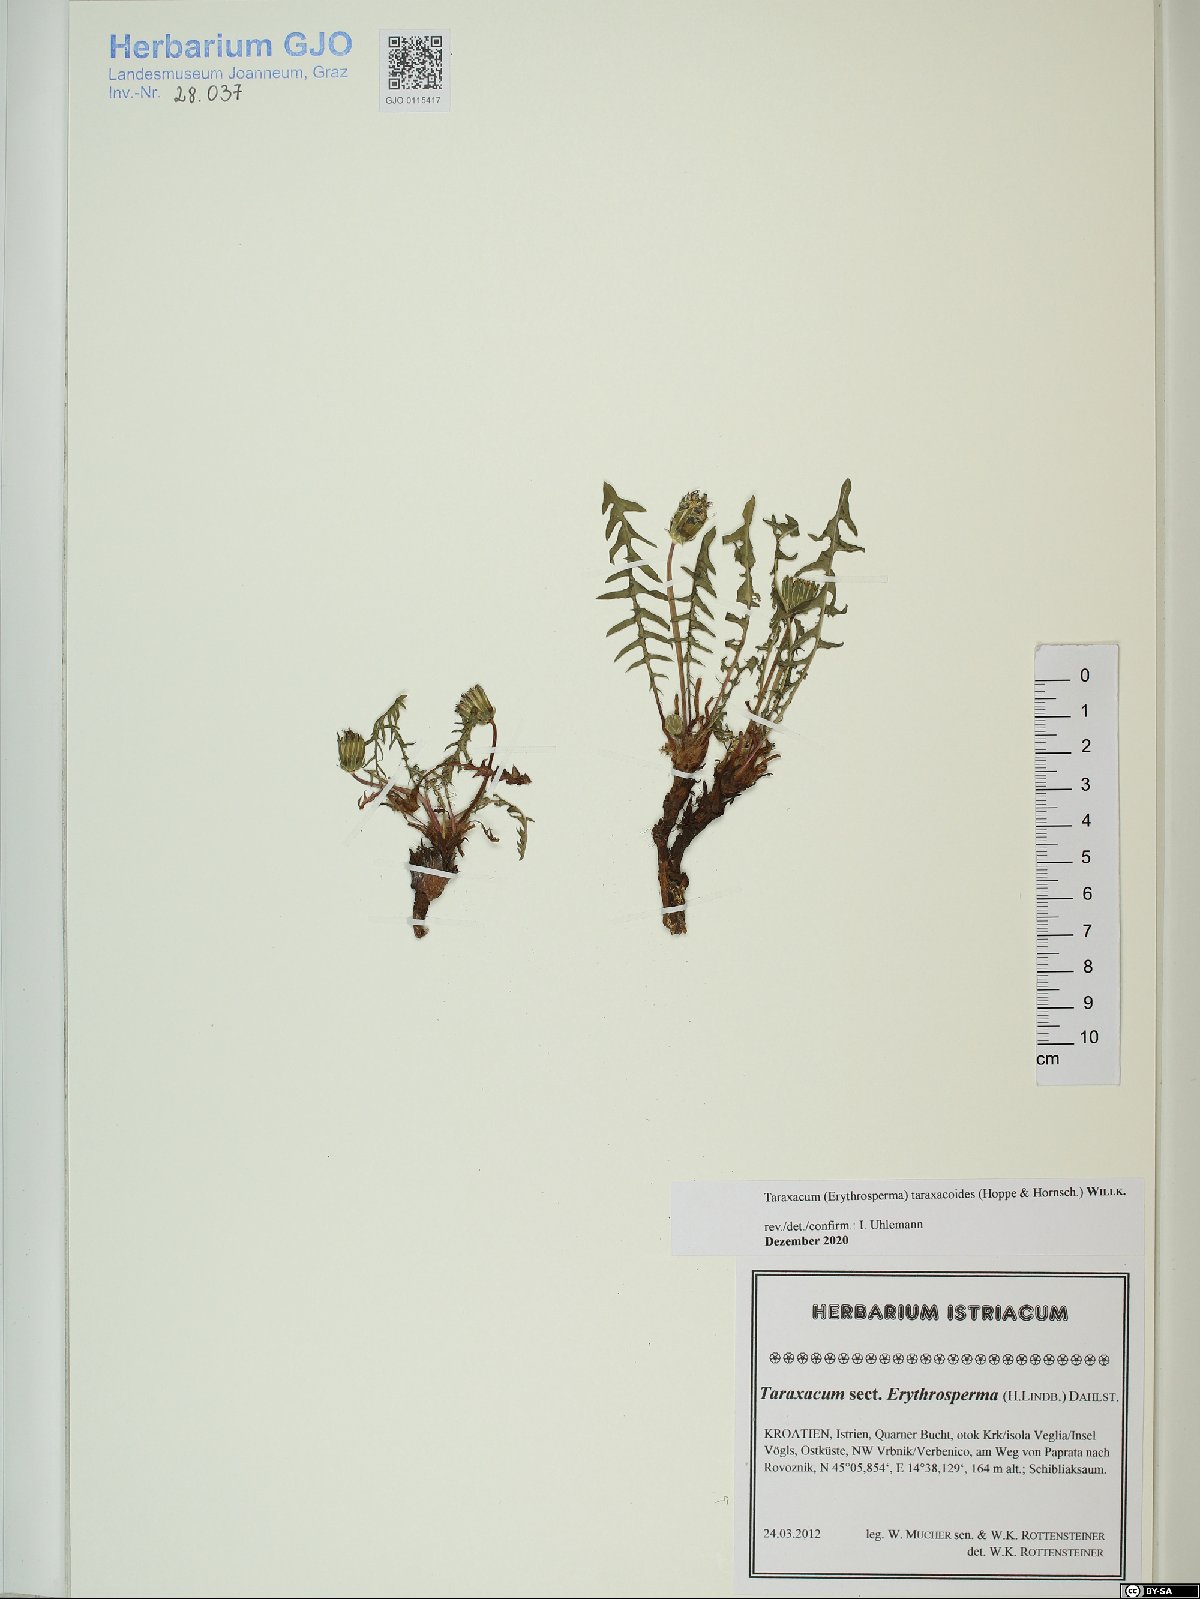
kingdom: Plantae
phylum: Tracheophyta
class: Magnoliopsida
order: Asterales
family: Asteraceae
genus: Taraxacum
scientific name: Taraxacum taraxacoides
